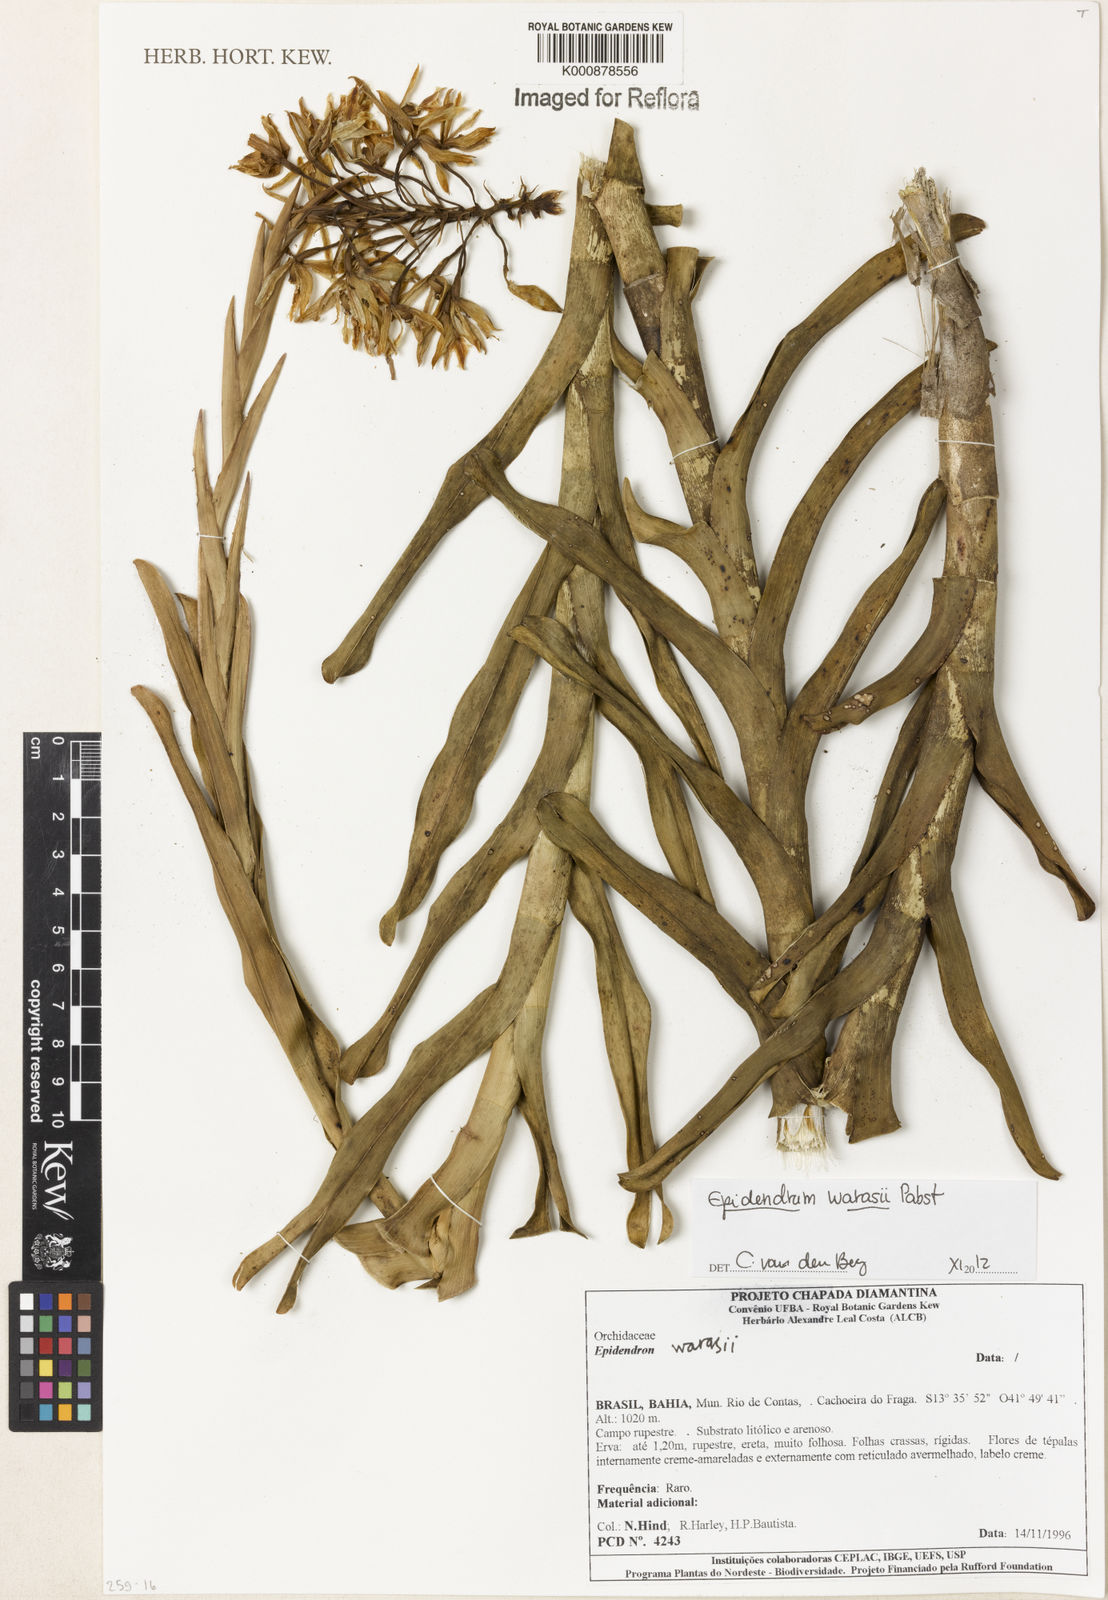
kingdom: Plantae
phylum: Tracheophyta
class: Liliopsida
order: Asparagales
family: Orchidaceae
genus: Epidendrum
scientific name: Epidendrum warrasii
